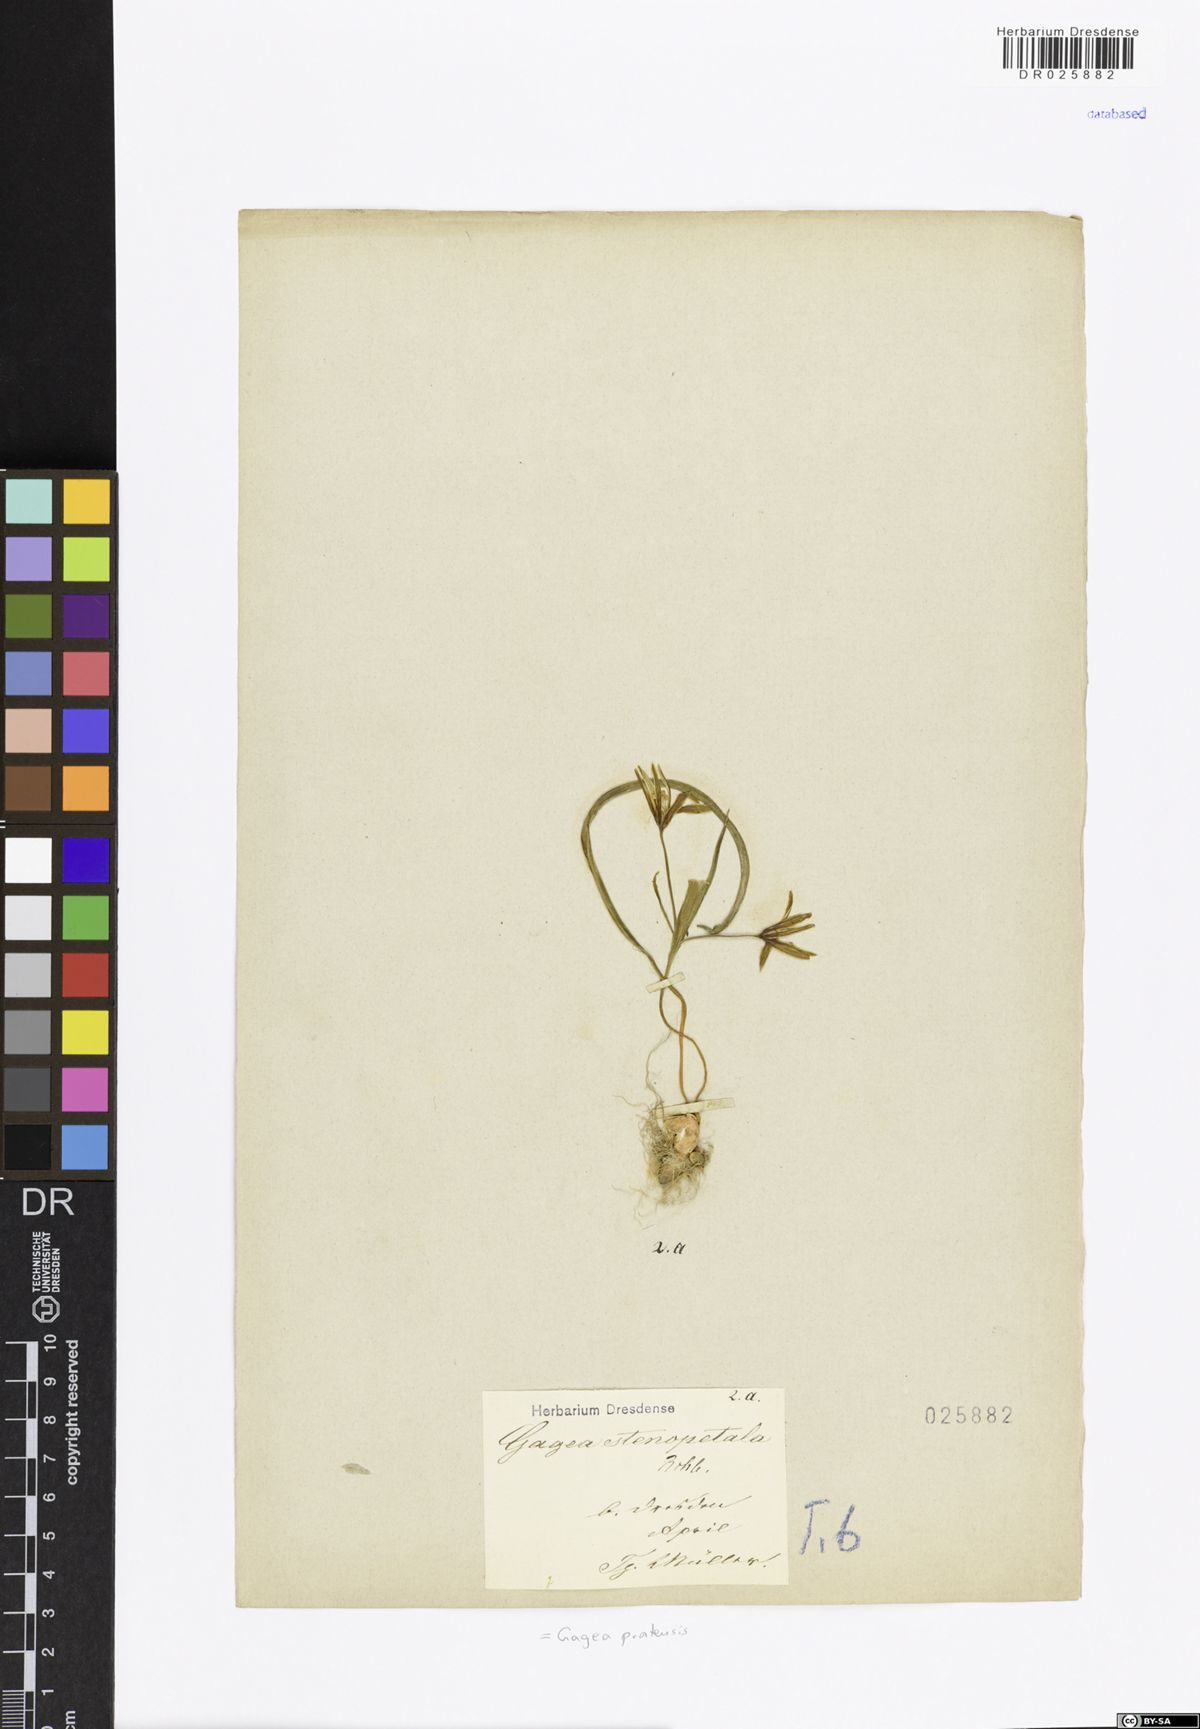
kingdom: Plantae
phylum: Tracheophyta
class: Liliopsida
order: Liliales
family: Liliaceae
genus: Gagea
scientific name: Gagea pratensis
